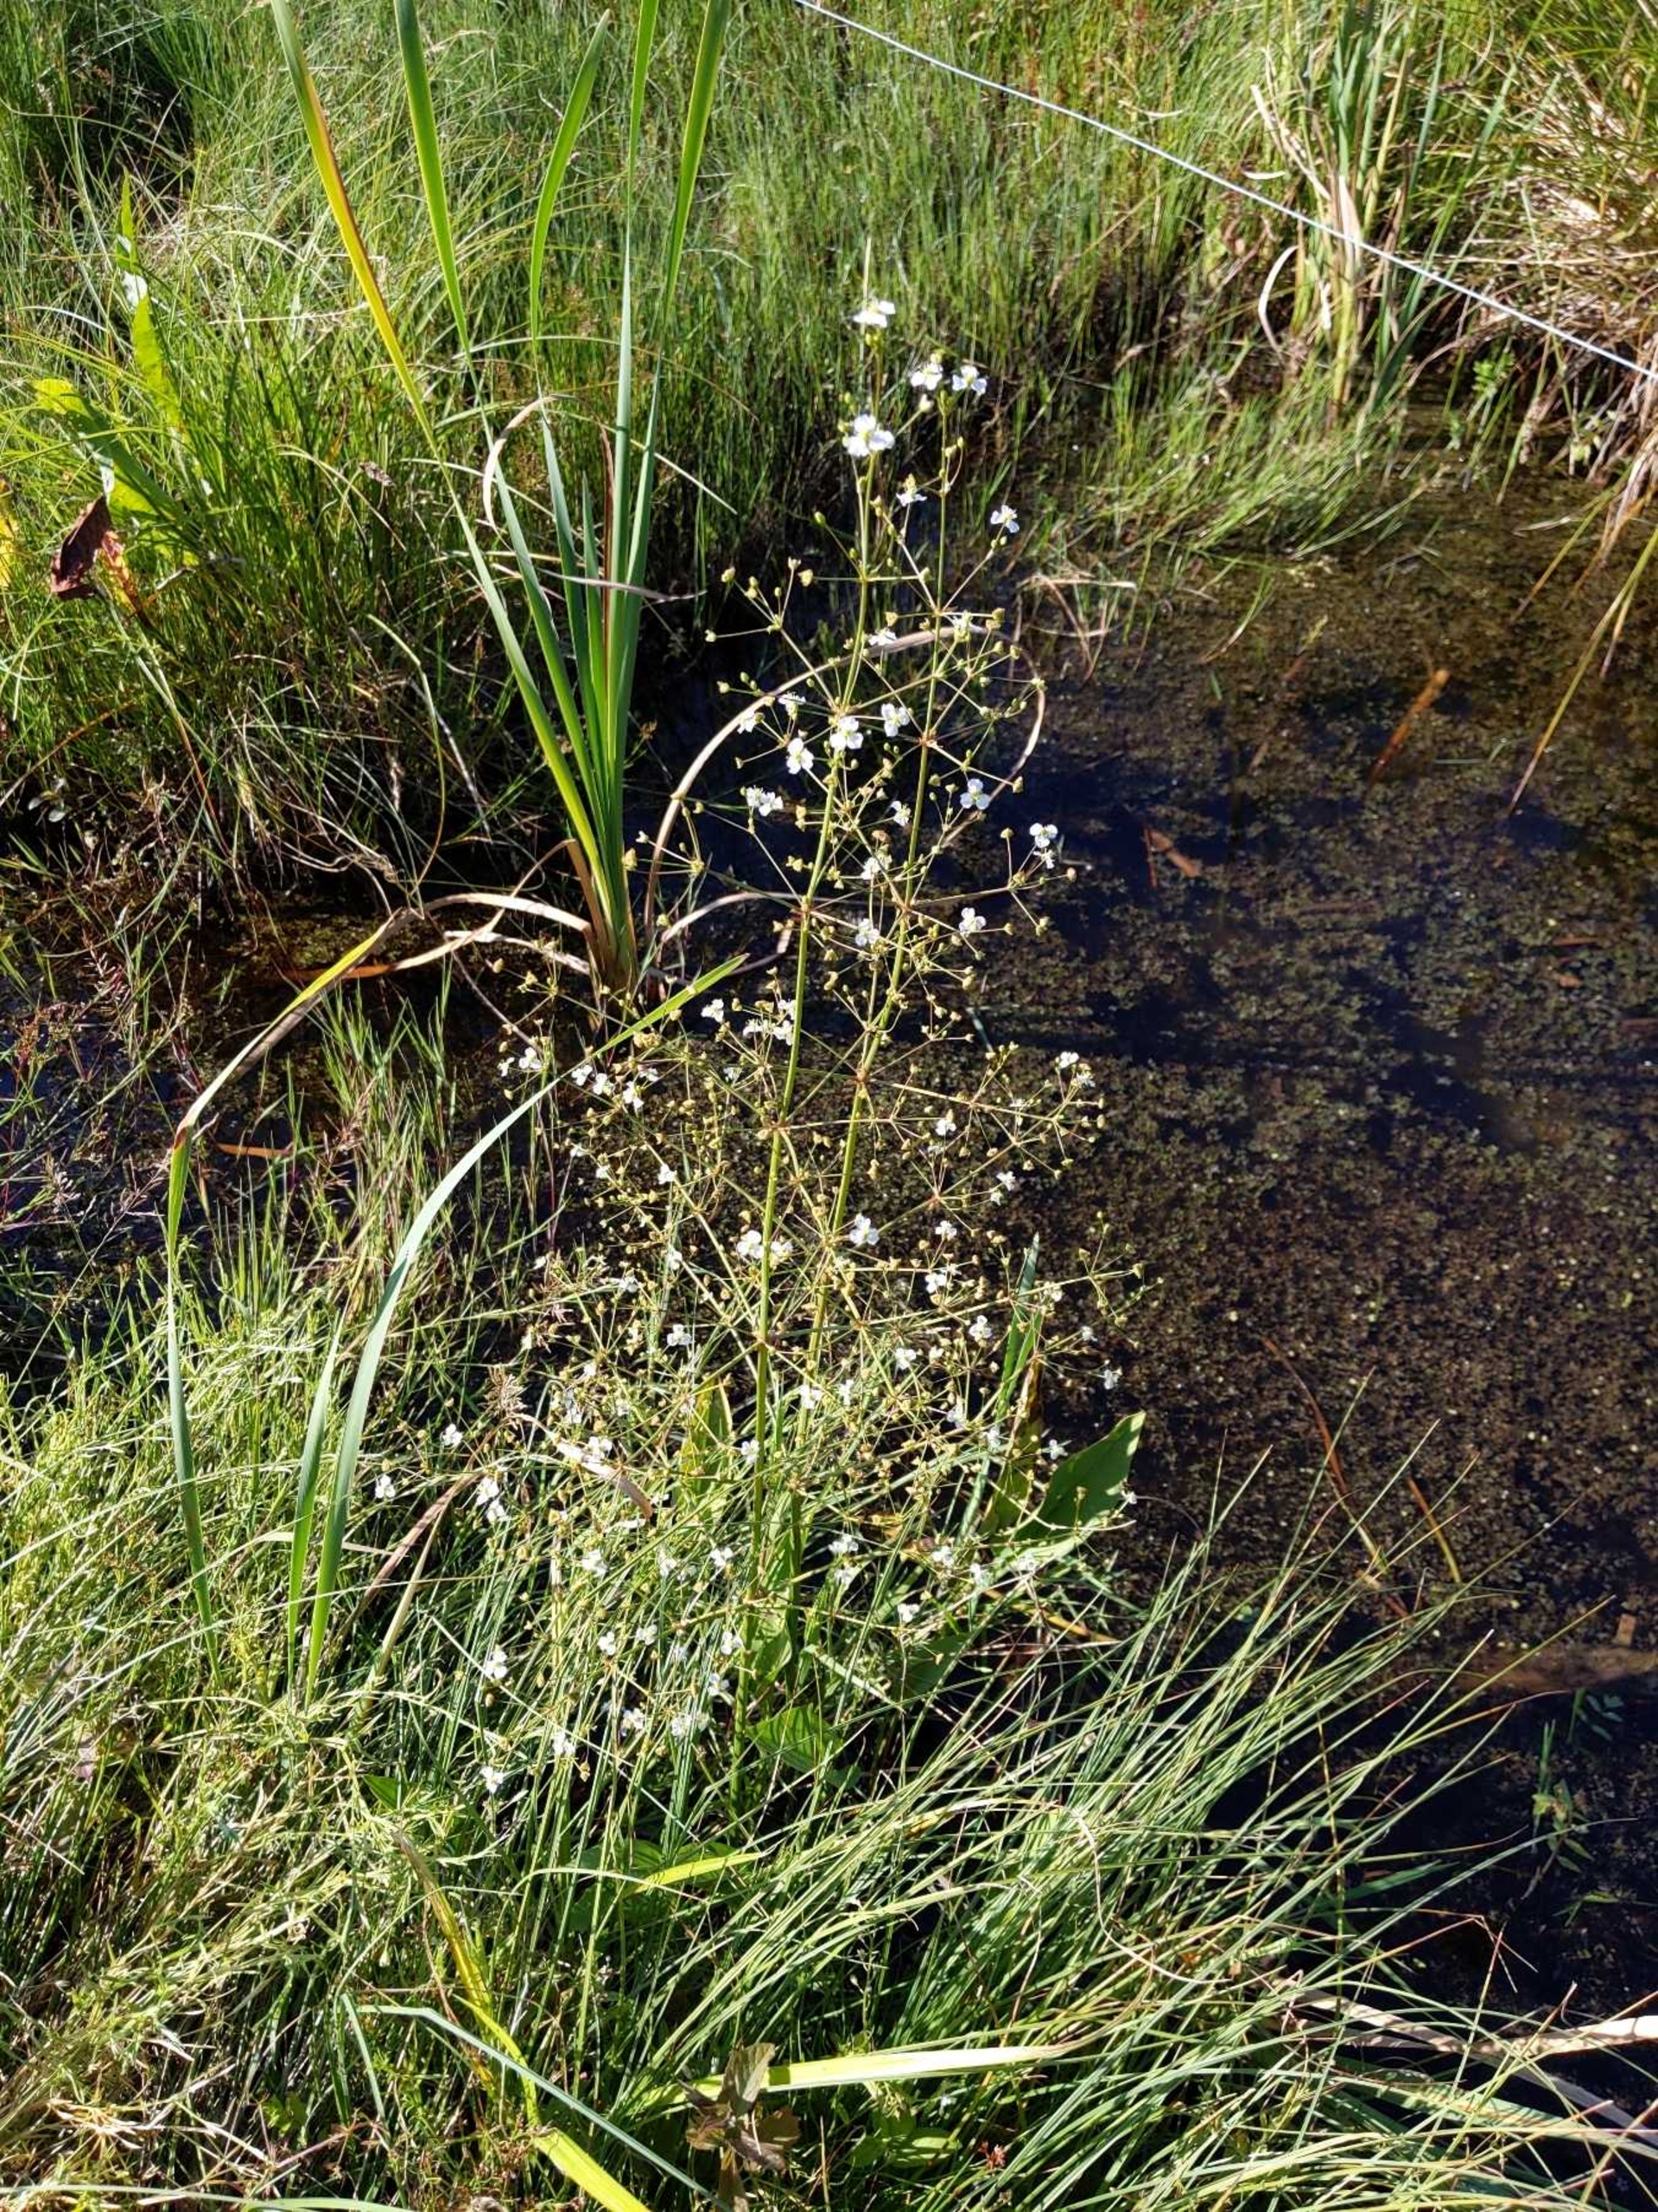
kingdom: Plantae
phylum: Tracheophyta
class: Liliopsida
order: Alismatales
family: Alismataceae
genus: Alisma
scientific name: Alisma plantago-aquatica
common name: Vejbred-skeblad
